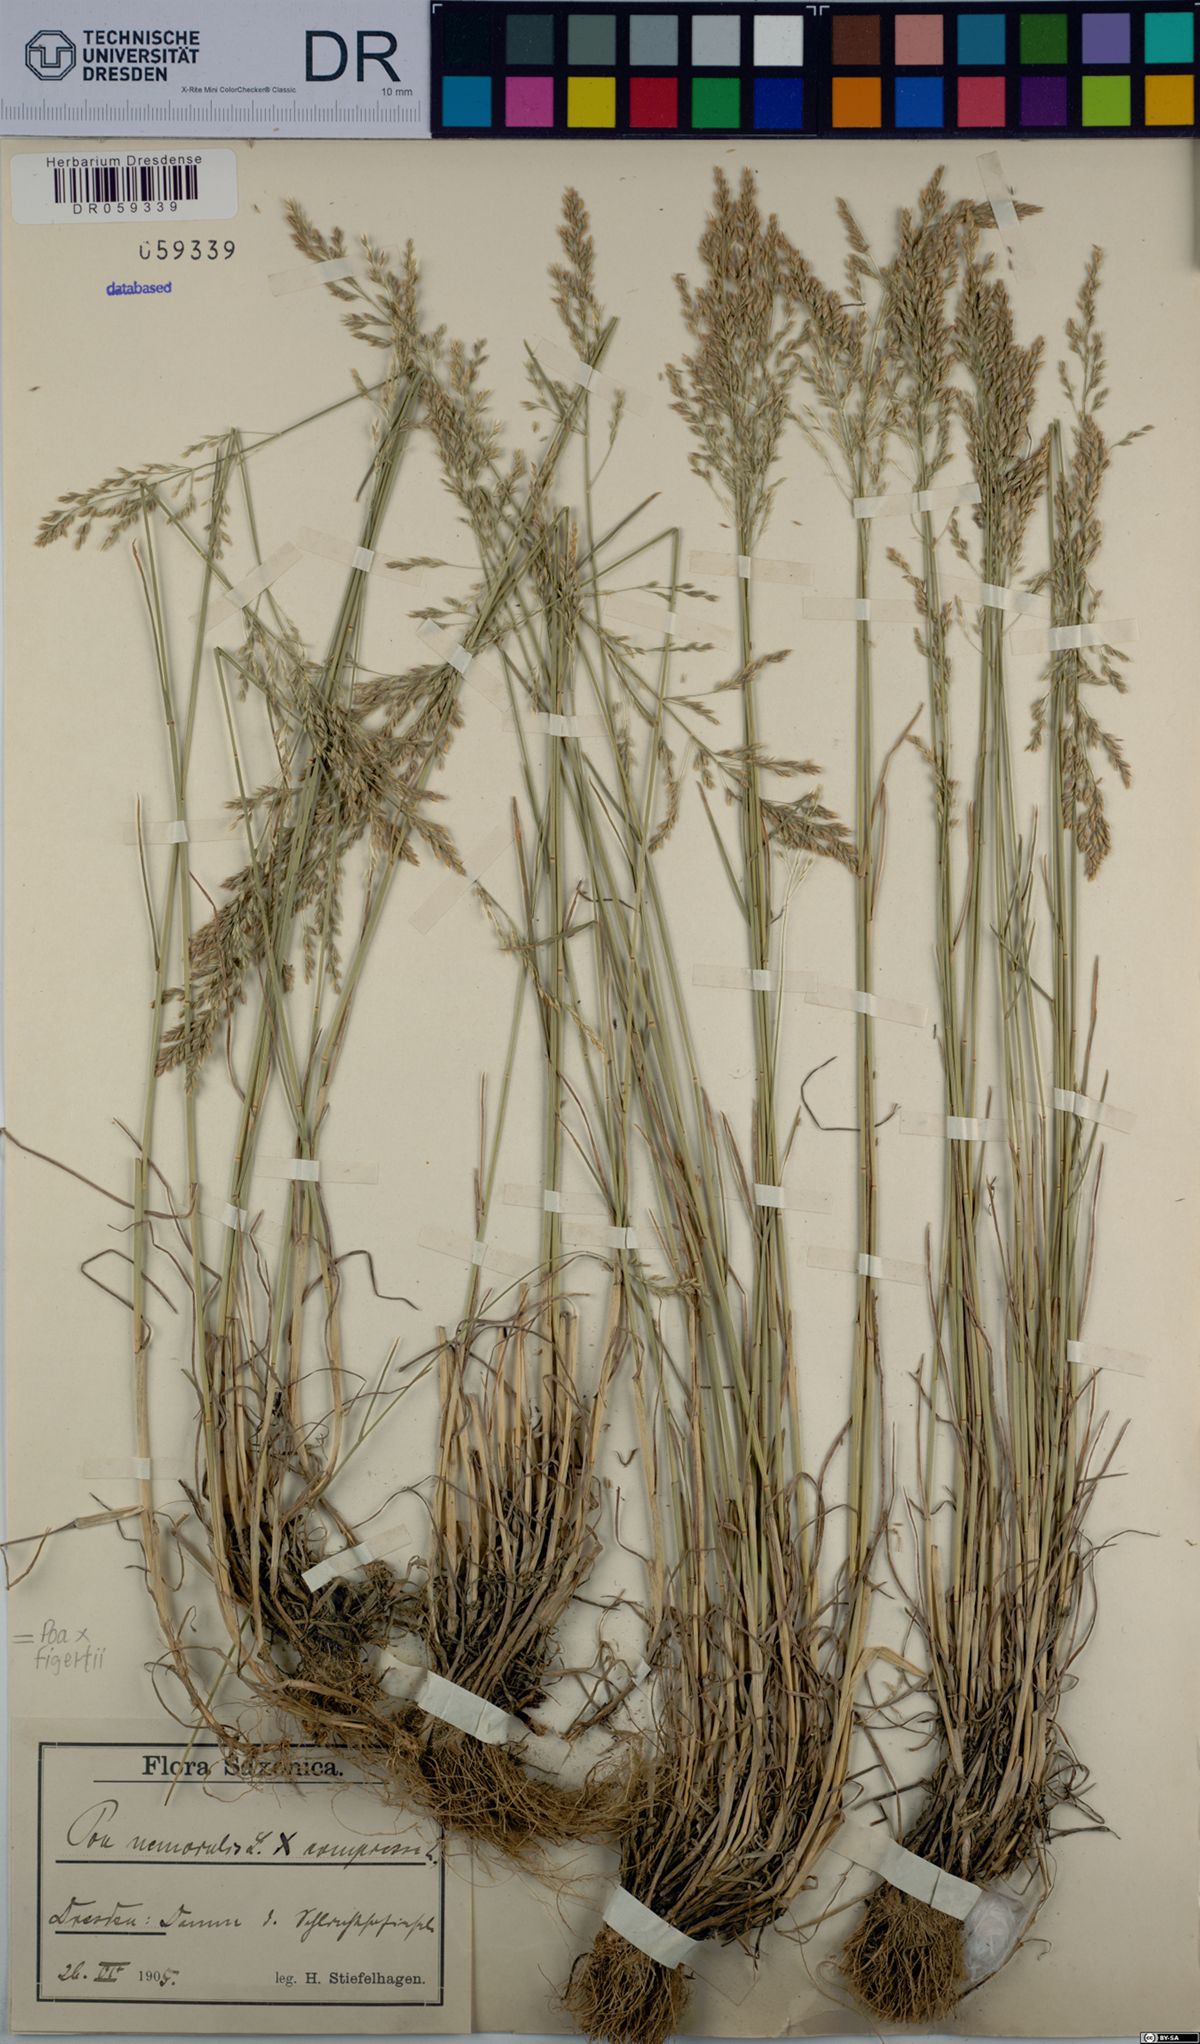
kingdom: Plantae
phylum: Tracheophyta
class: Liliopsida
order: Poales
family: Poaceae
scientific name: Poaceae
